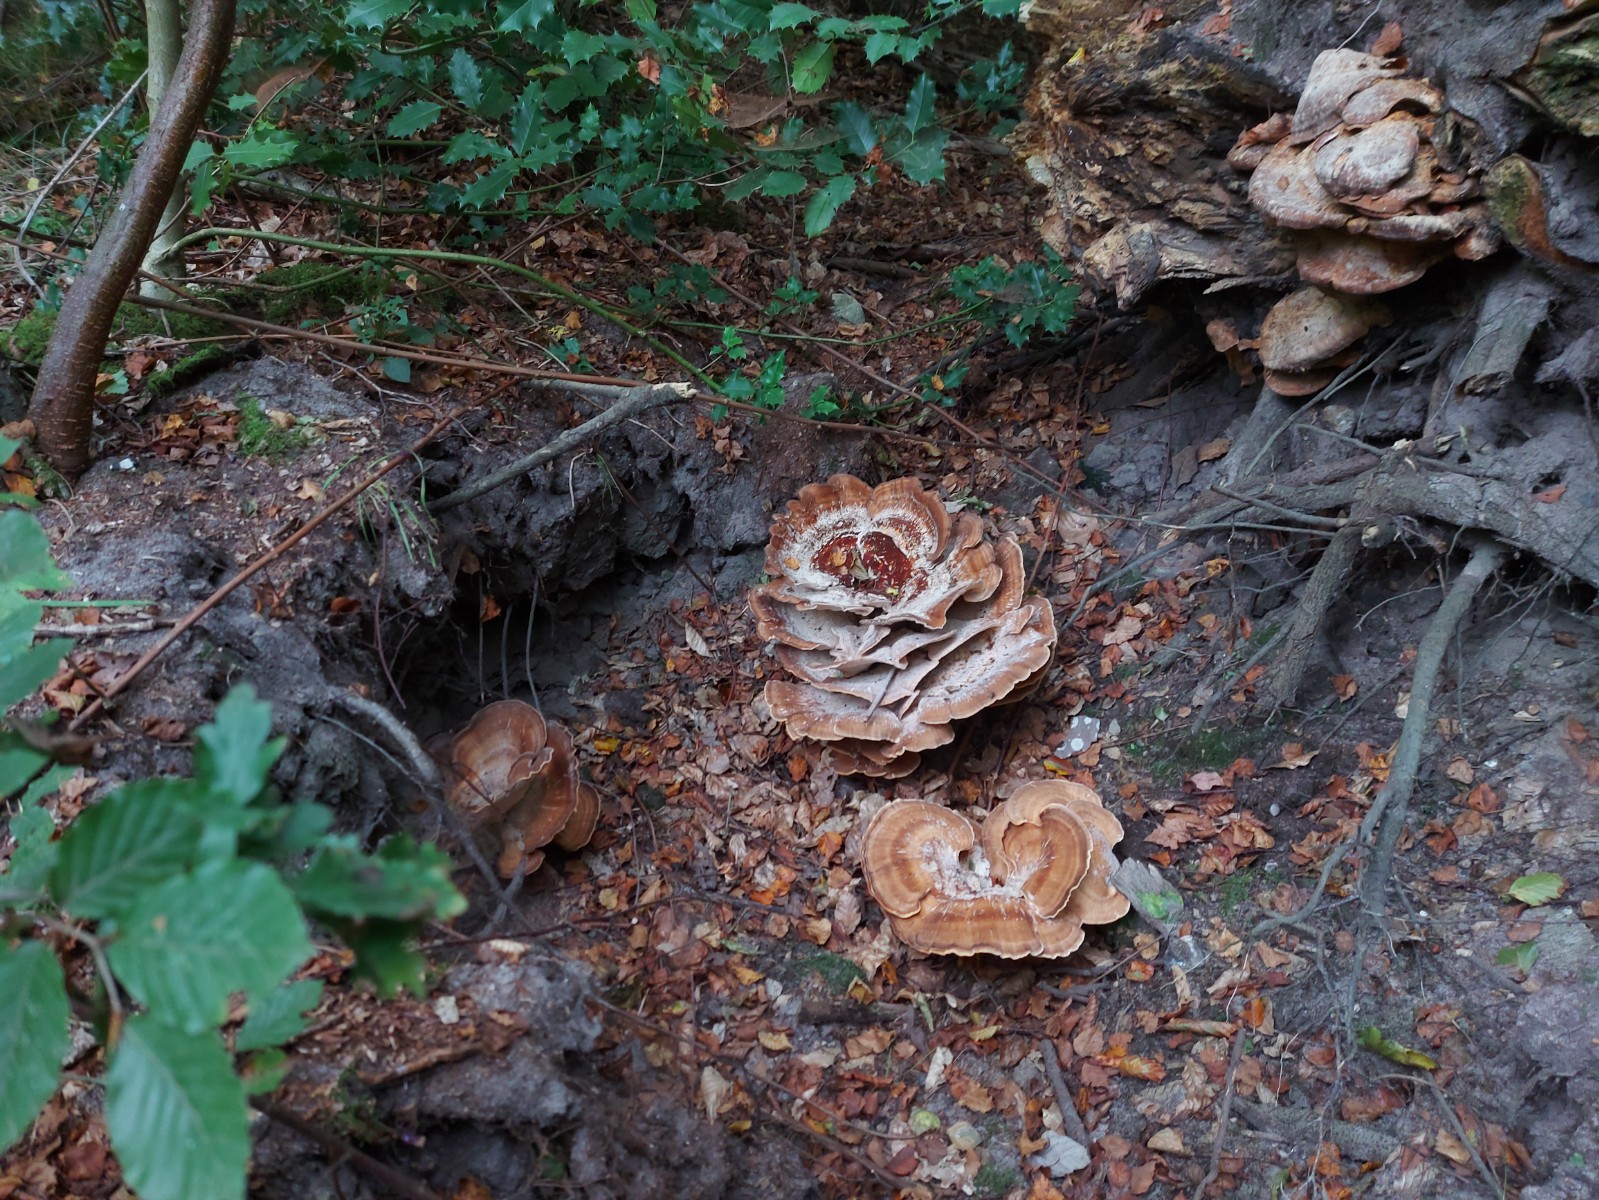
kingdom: Fungi
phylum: Basidiomycota
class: Agaricomycetes
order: Polyporales
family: Meripilaceae
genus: Meripilus
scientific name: Meripilus giganteus
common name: kæmpeporesvamp
